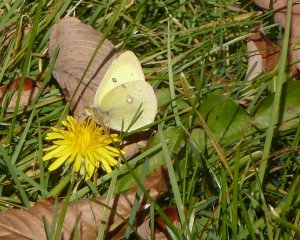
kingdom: Animalia
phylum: Arthropoda
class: Insecta
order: Lepidoptera
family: Pieridae
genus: Colias
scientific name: Colias philodice
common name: Clouded Sulphur
